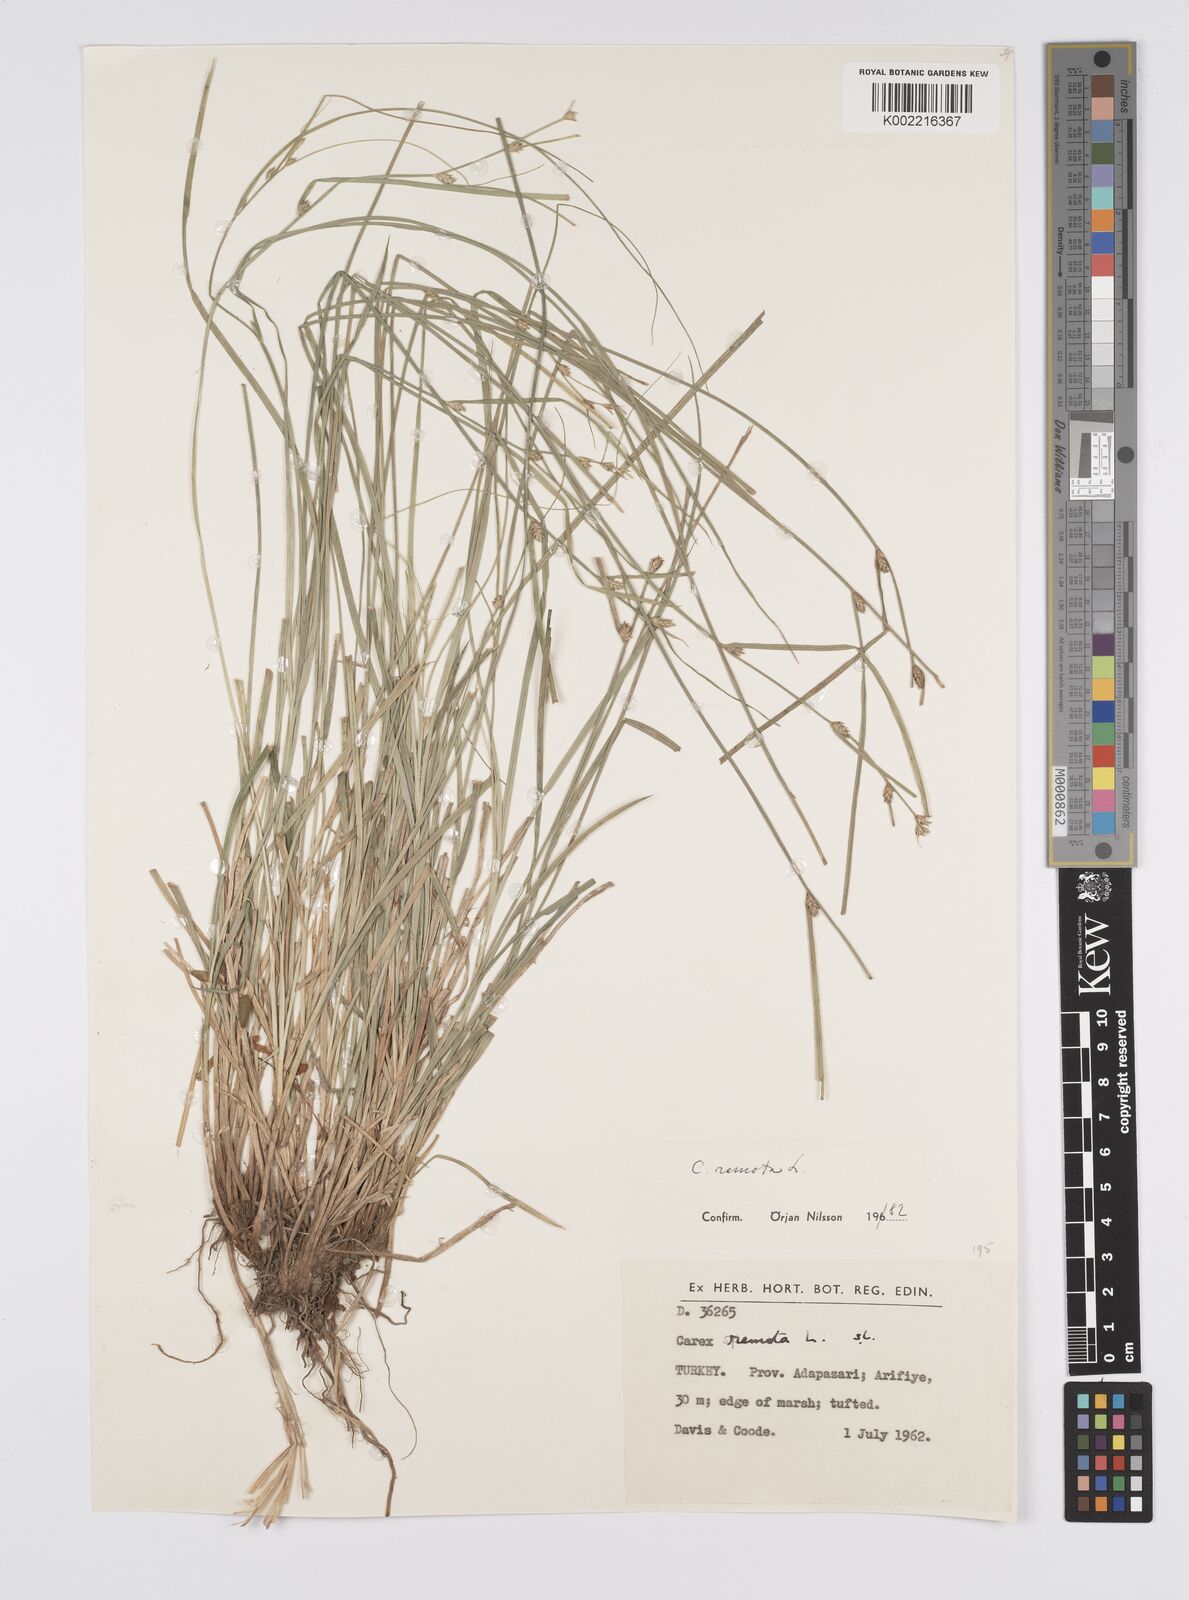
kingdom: Plantae
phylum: Tracheophyta
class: Liliopsida
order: Poales
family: Cyperaceae
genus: Carex
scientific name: Carex remota
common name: Remote sedge
